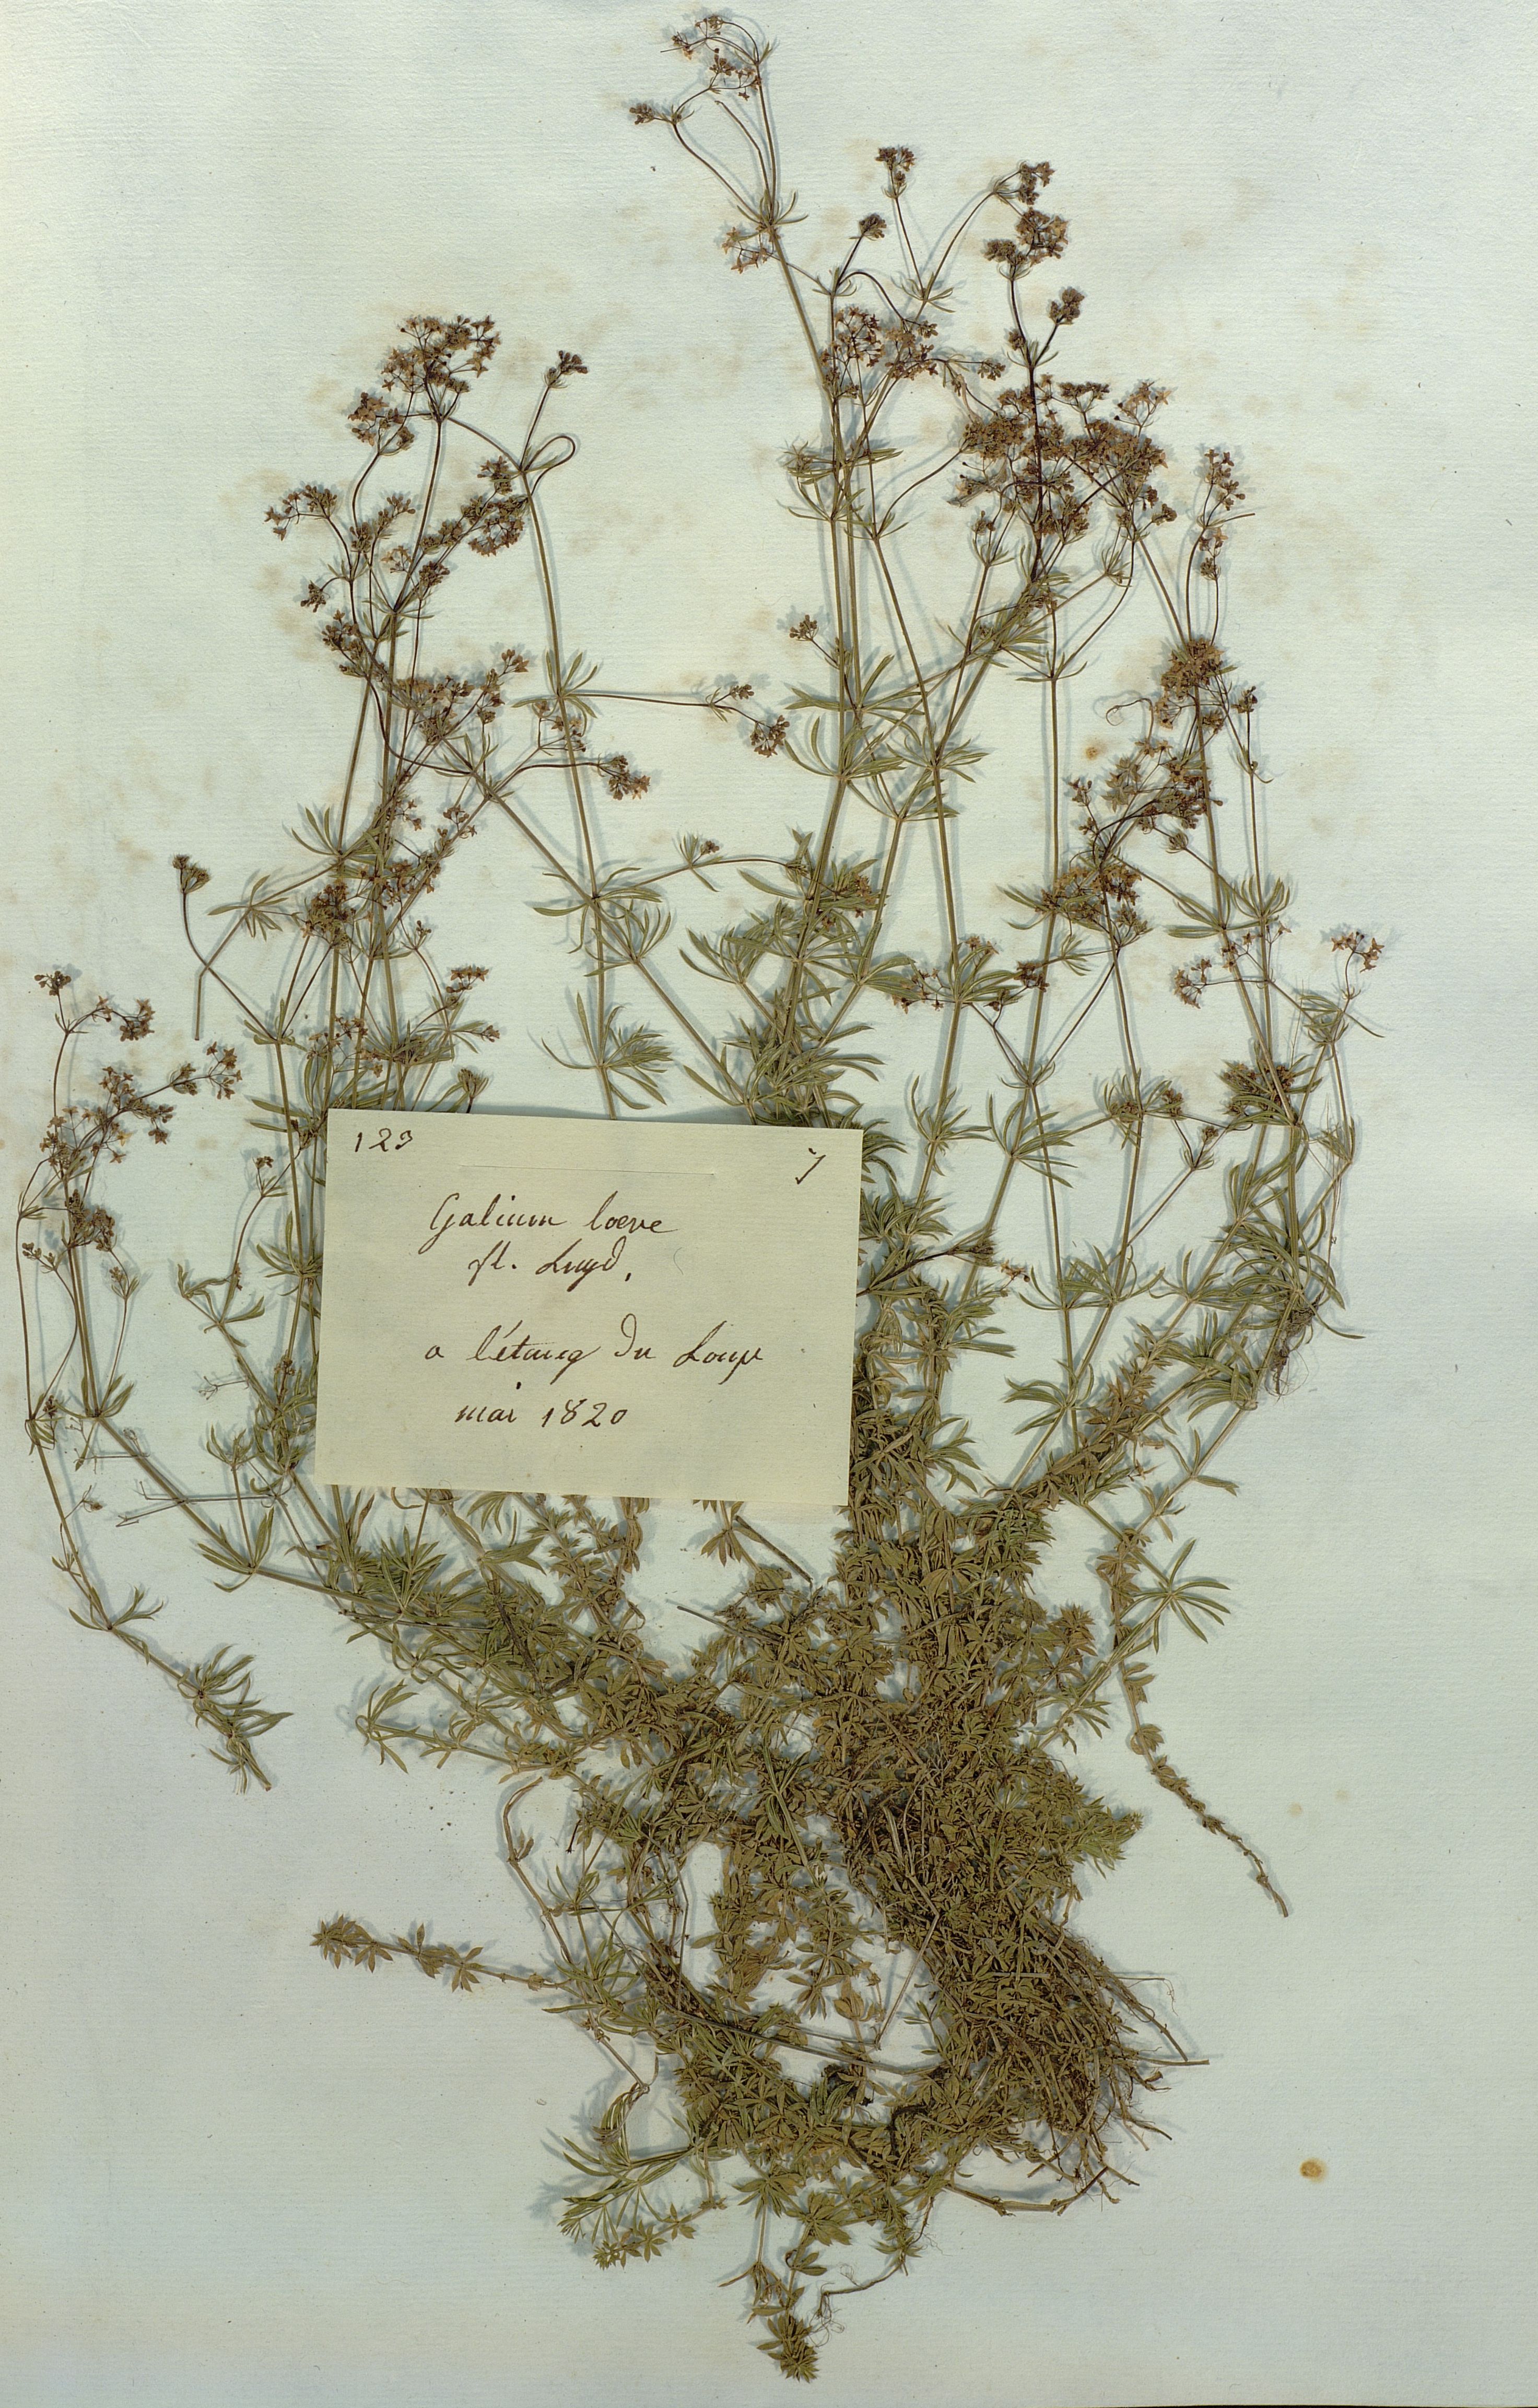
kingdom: Plantae
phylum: Tracheophyta
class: Magnoliopsida
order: Gentianales
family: Rubiaceae
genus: Galium
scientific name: Galium pumilum
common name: Slender bedstraw
